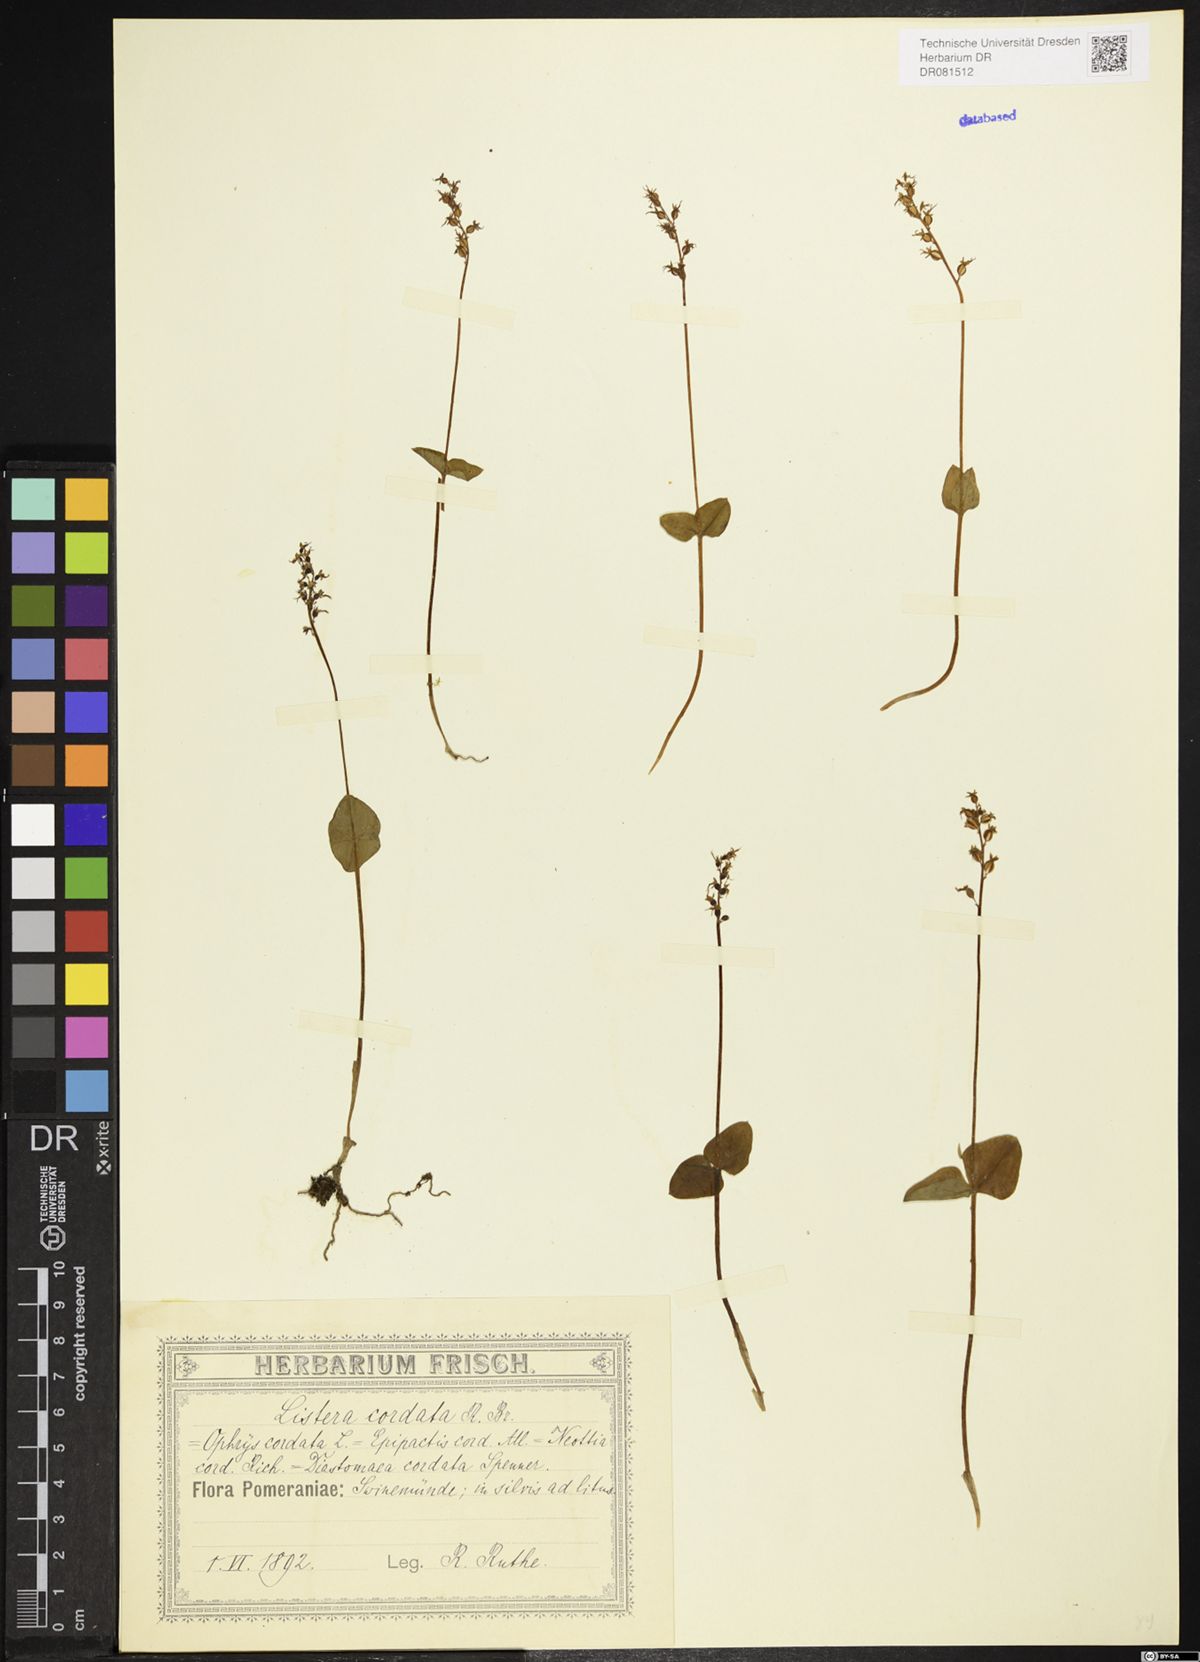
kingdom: Plantae
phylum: Tracheophyta
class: Liliopsida
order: Asparagales
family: Orchidaceae
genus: Neottia
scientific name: Neottia cordata
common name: Lesser twayblade
